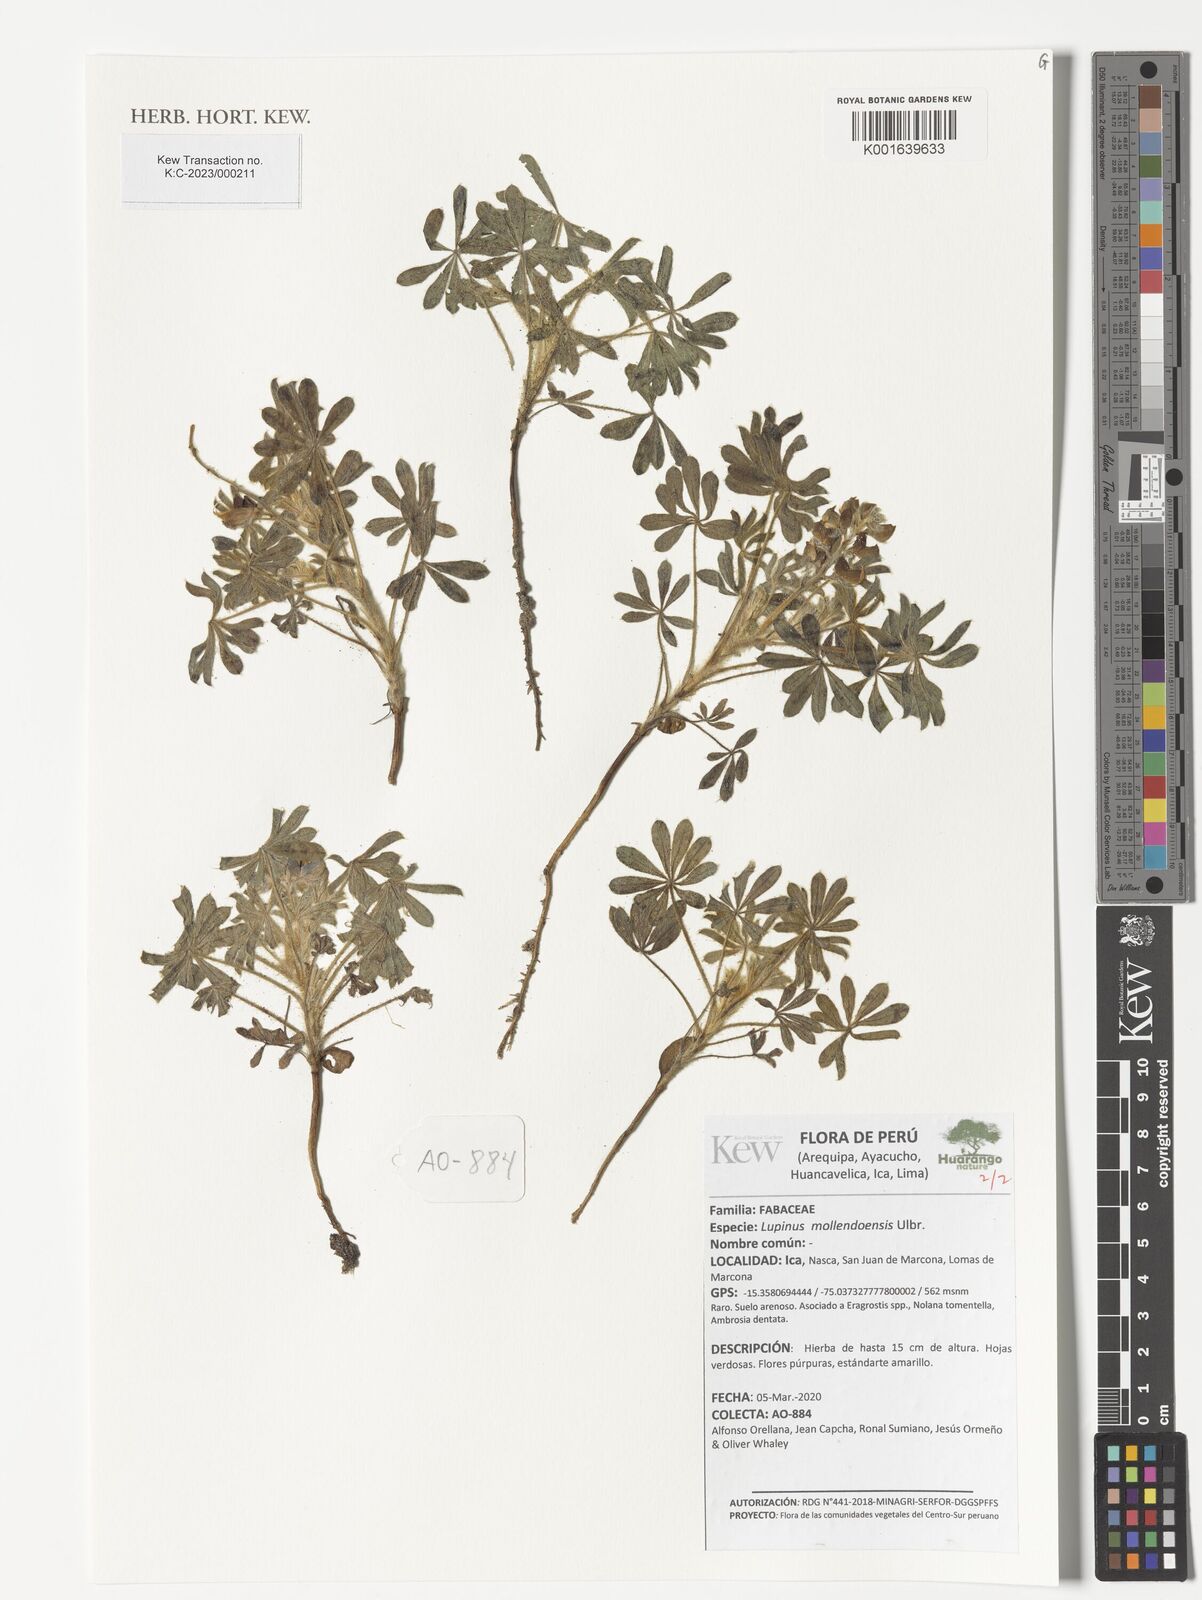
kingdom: Plantae
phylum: Tracheophyta
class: Magnoliopsida
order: Fabales
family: Fabaceae
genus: Lupinus
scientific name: Lupinus mollendoensis
